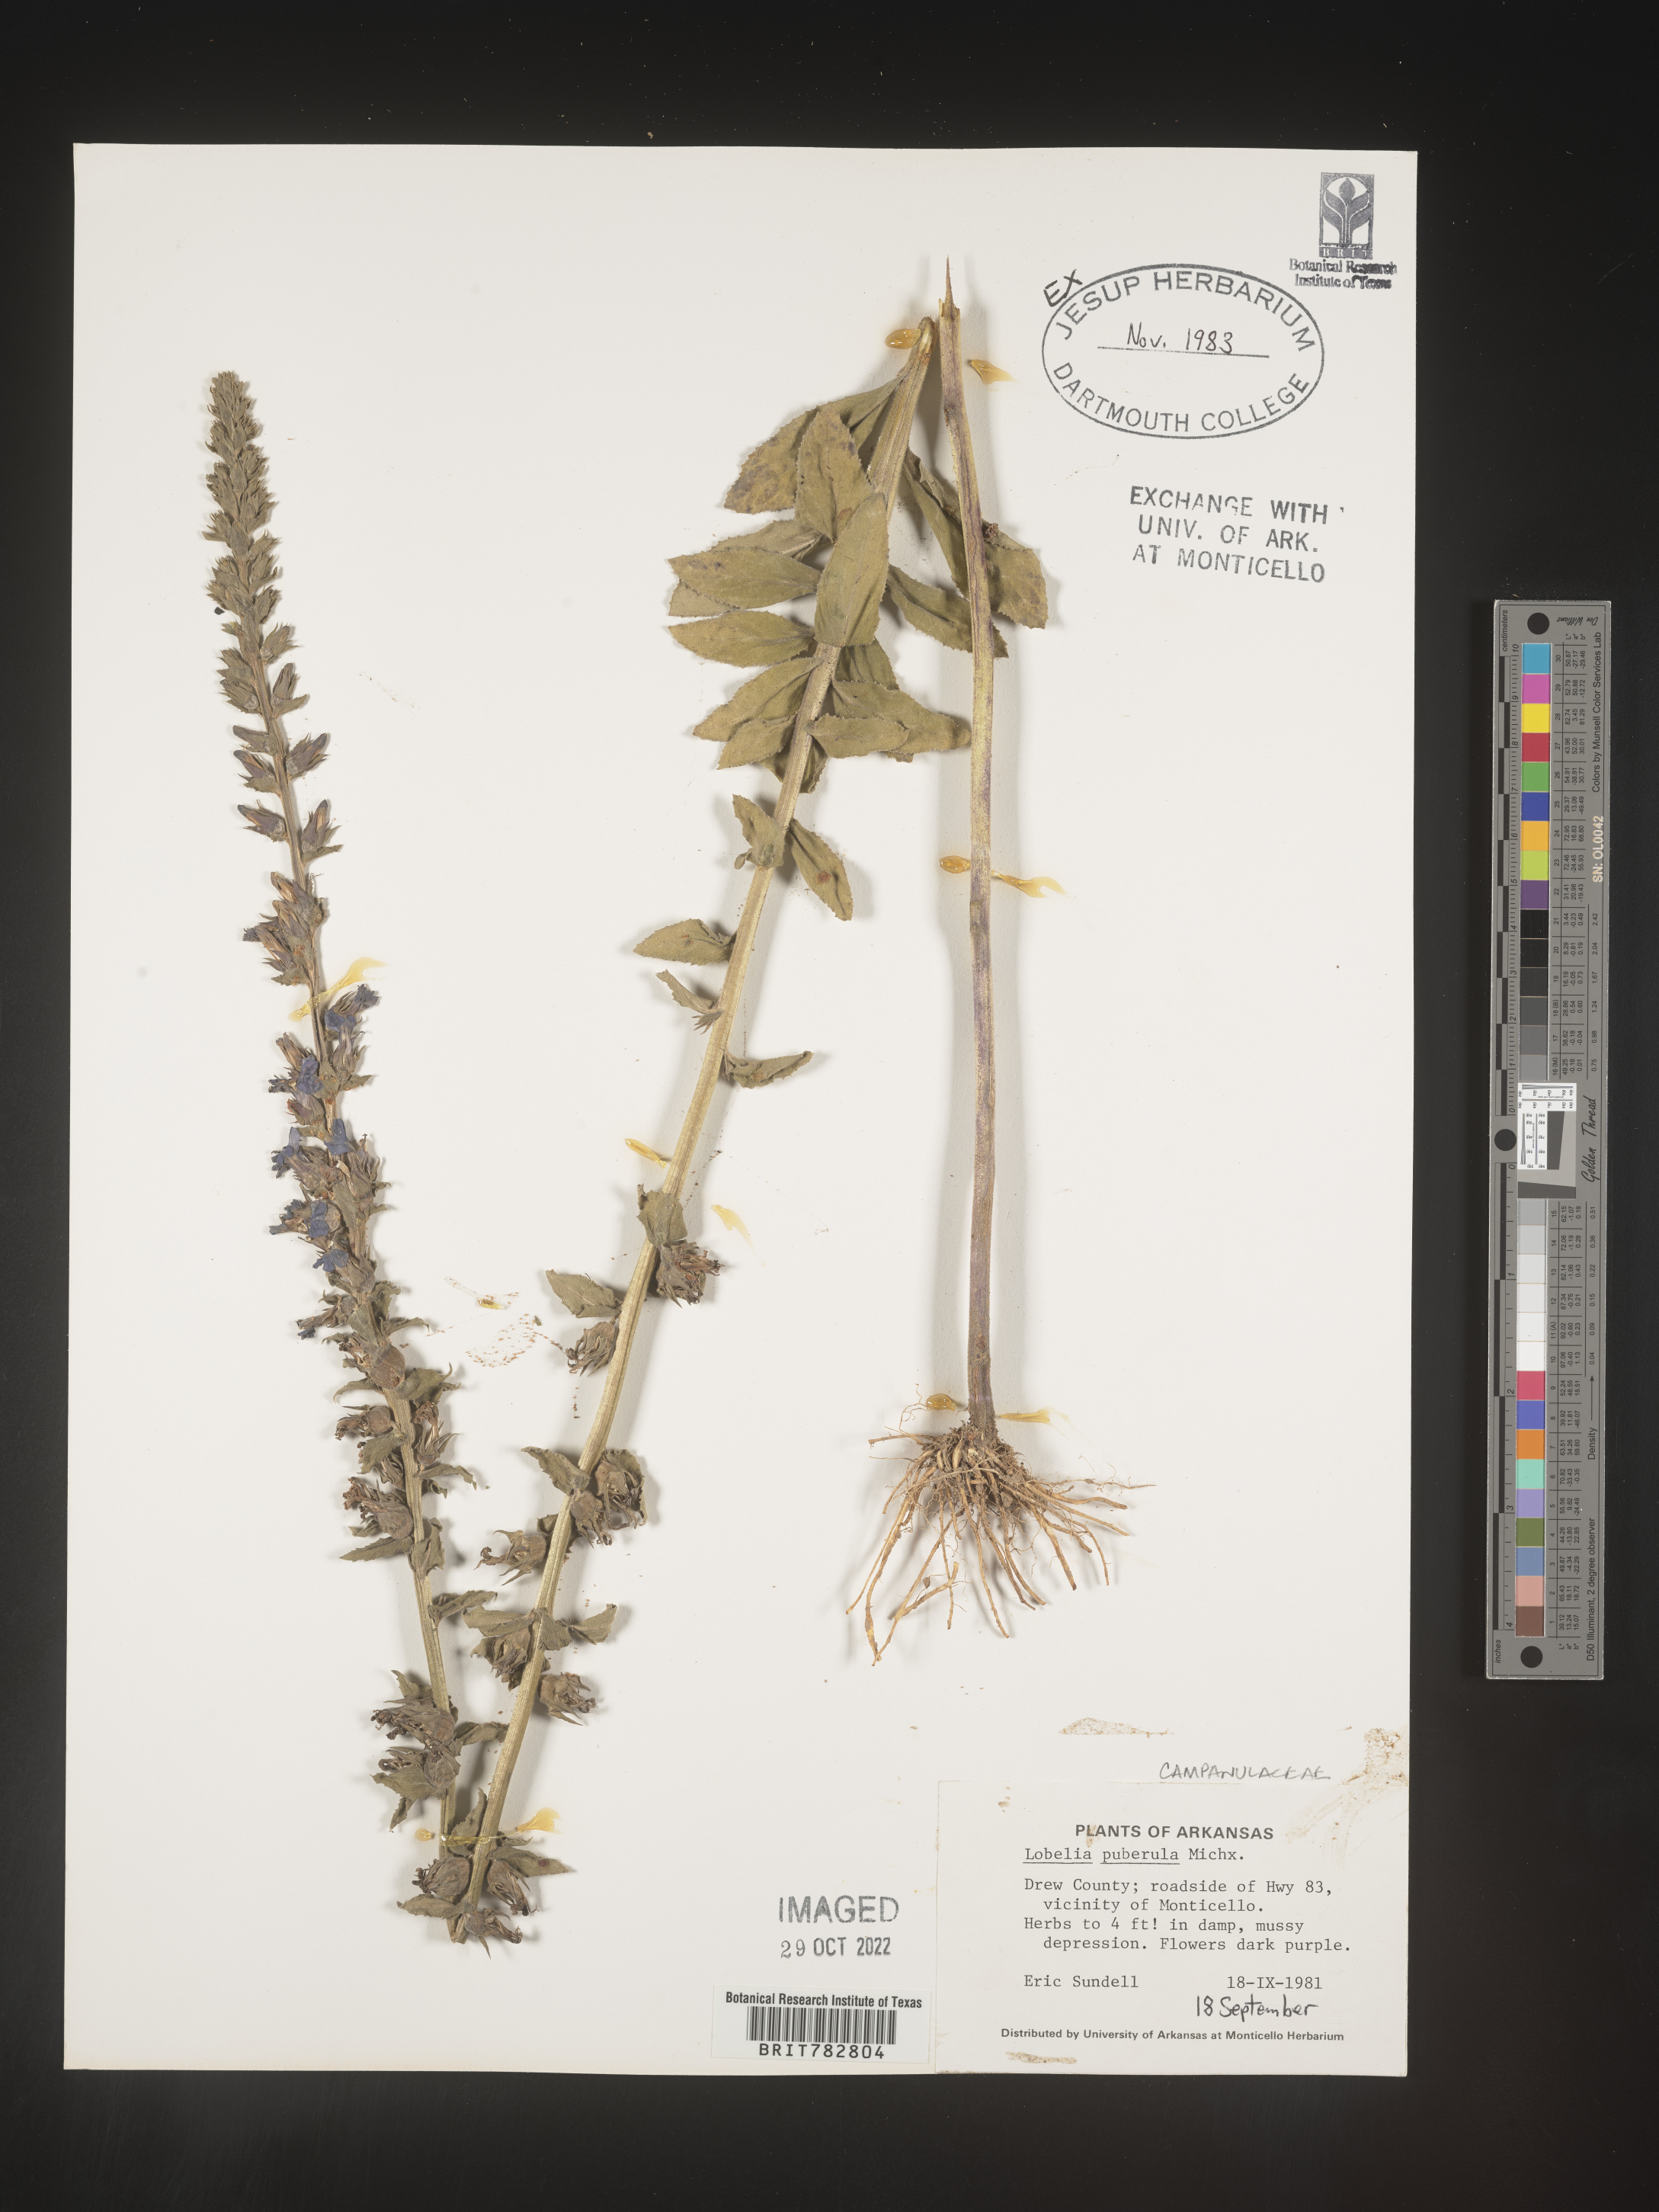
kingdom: Plantae
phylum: Tracheophyta
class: Magnoliopsida
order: Asterales
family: Campanulaceae
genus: Lobelia
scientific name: Lobelia puberula
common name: Purple dewdrop
